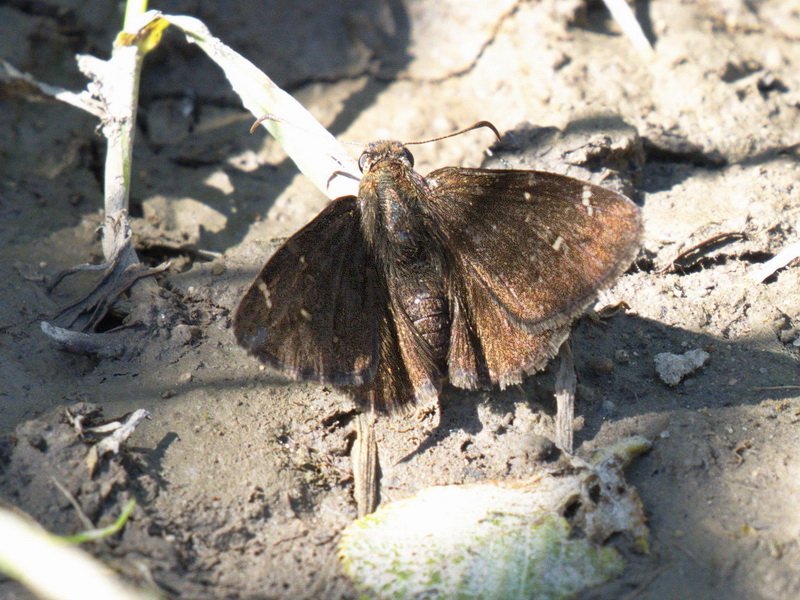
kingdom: Animalia
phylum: Arthropoda
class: Insecta
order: Lepidoptera
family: Hesperiidae
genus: Autochton
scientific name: Autochton
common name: Northern Cloudywing
